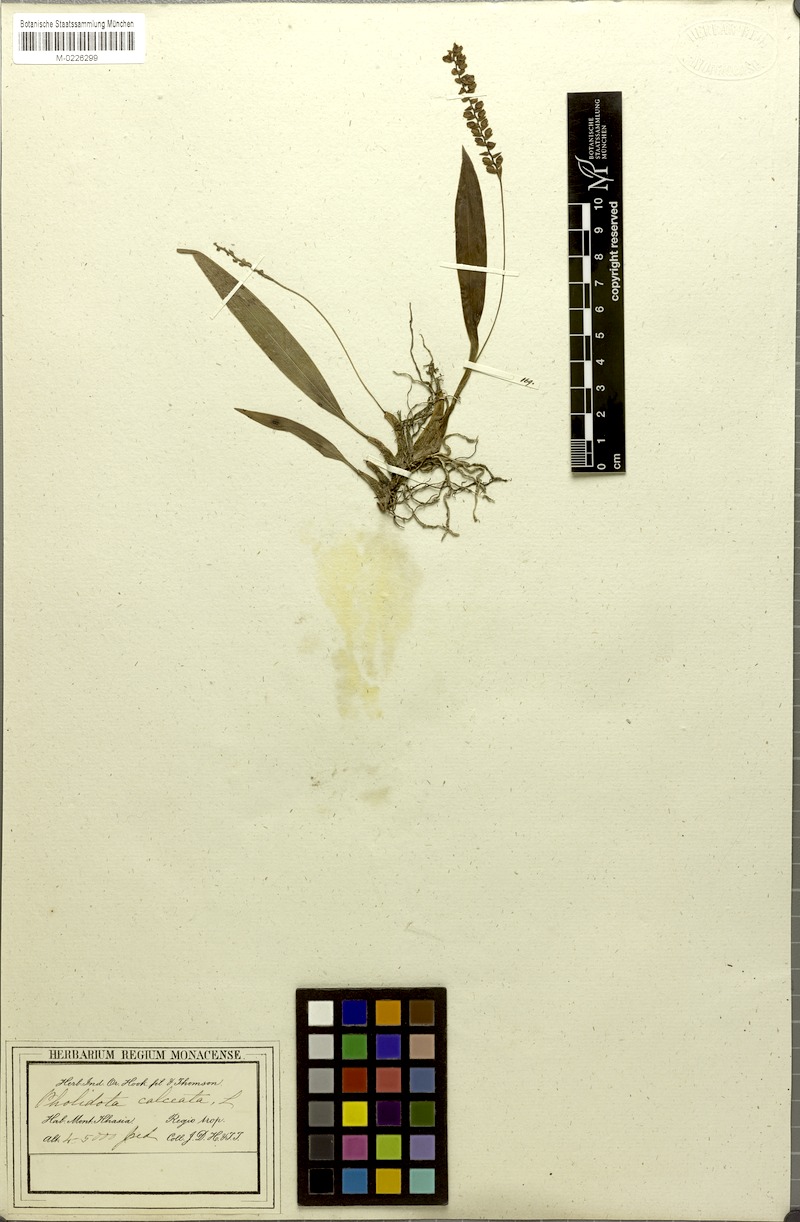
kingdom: Plantae
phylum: Tracheophyta
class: Liliopsida
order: Asparagales
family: Orchidaceae
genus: Pholidota
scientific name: Pholidota imbricata
